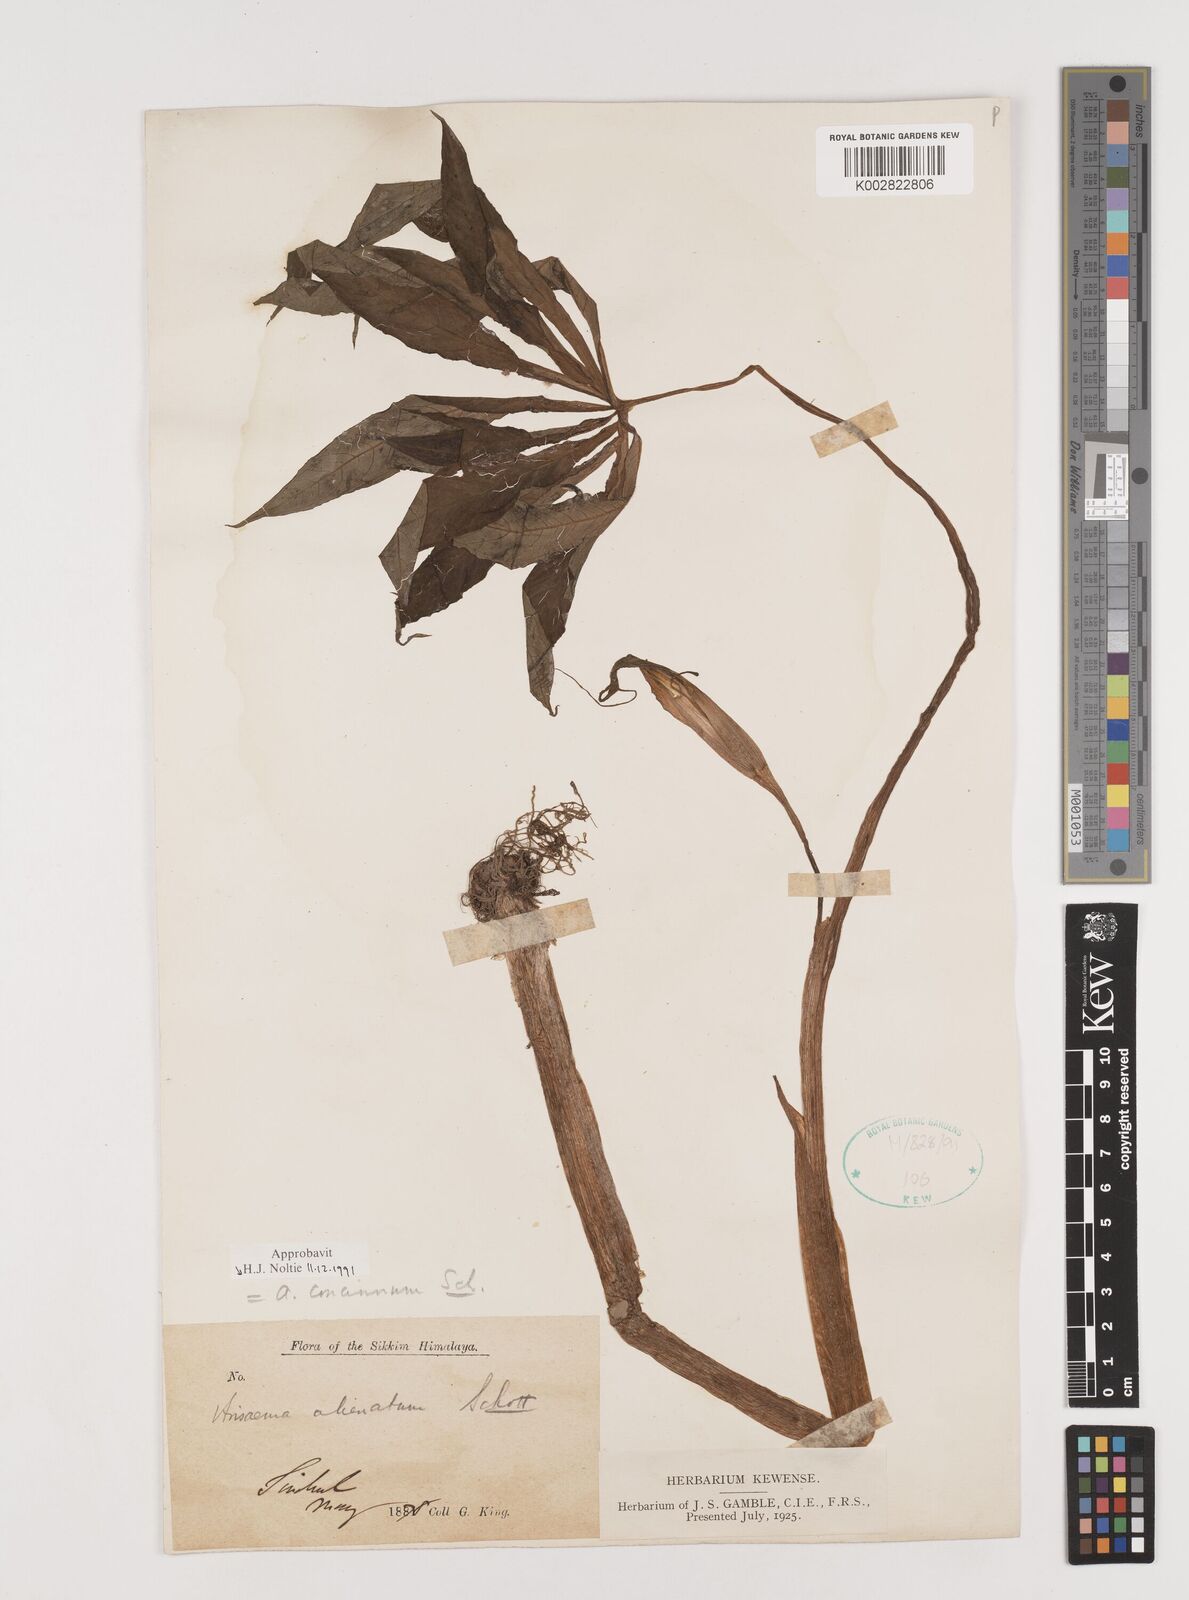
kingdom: Plantae
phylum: Tracheophyta
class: Liliopsida
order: Alismatales
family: Araceae
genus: Arisaema
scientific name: Arisaema concinnum
